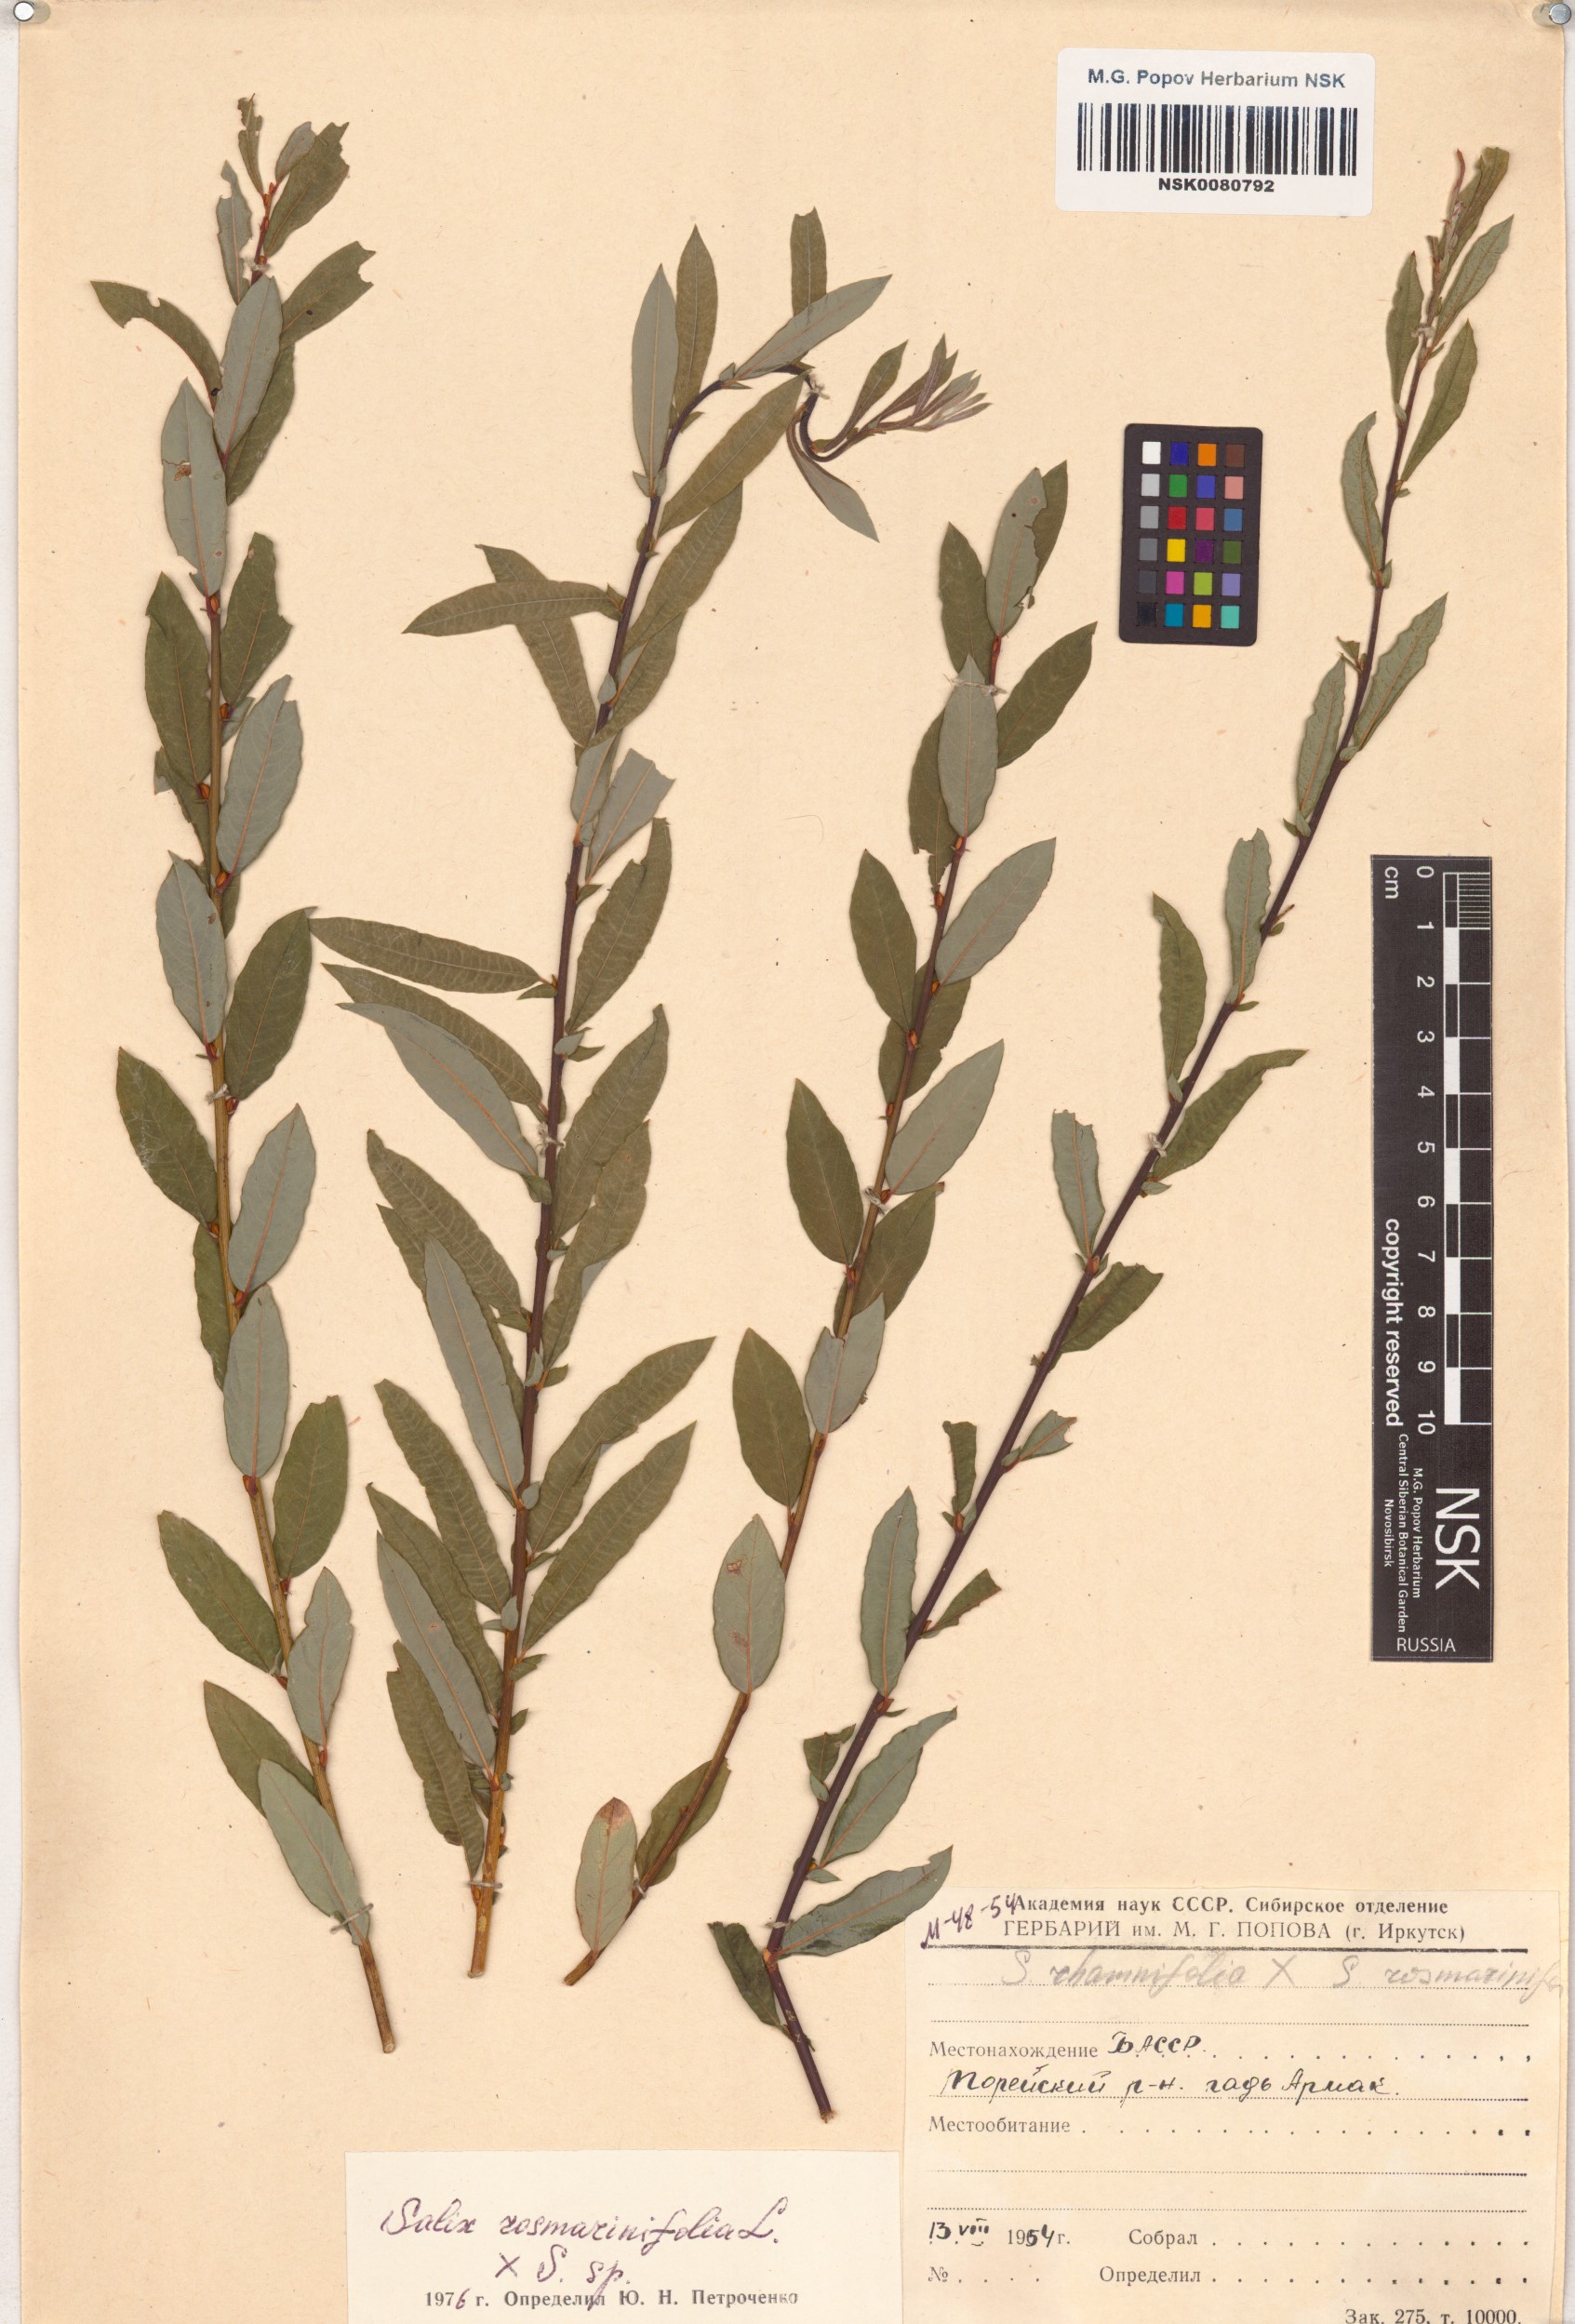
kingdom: Plantae
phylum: Tracheophyta
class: Magnoliopsida
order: Malpighiales
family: Salicaceae
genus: Salix
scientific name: Salix rosmarinifolia
